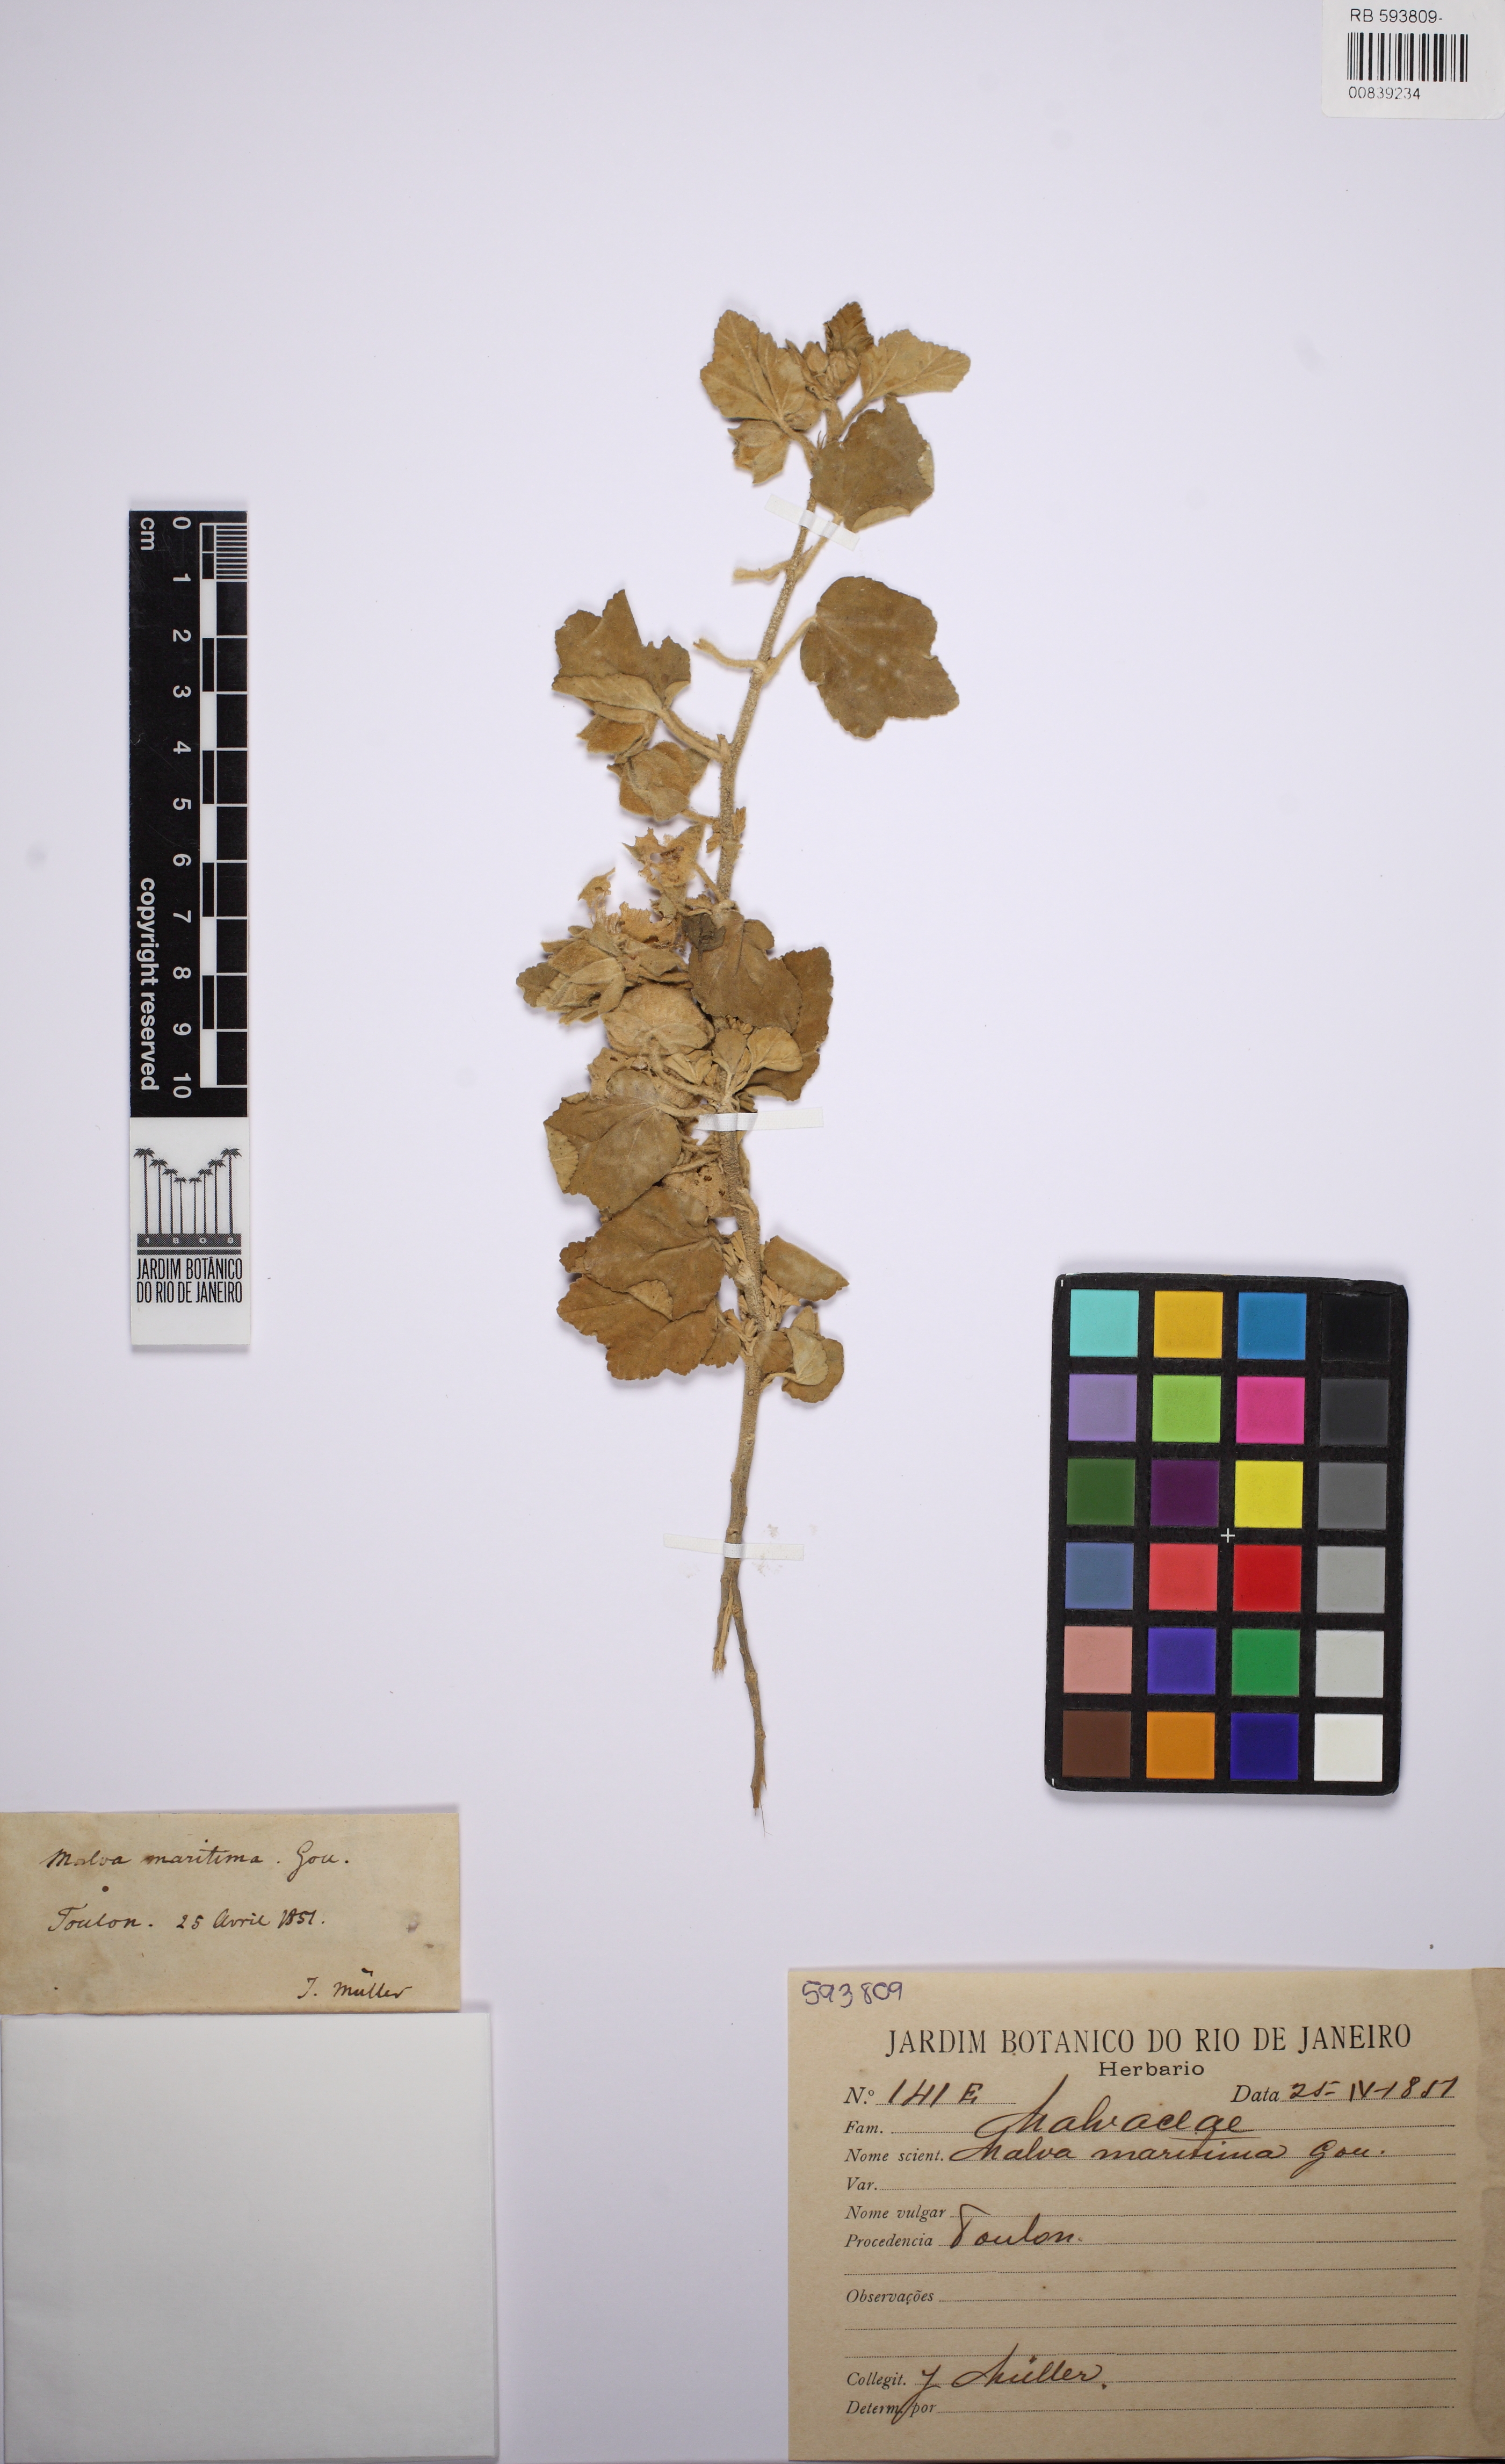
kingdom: Plantae
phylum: Tracheophyta
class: Magnoliopsida
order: Malvales
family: Malvaceae
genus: Malva
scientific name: Malva
